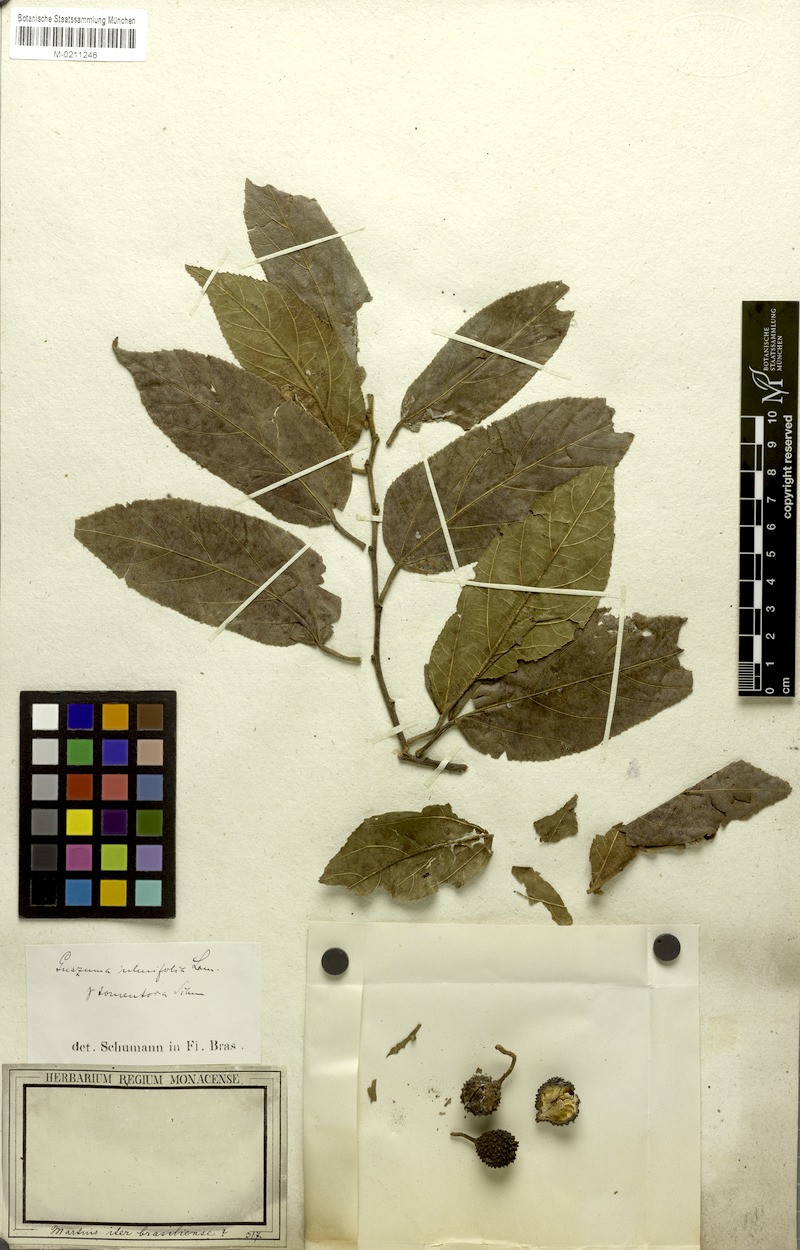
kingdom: Plantae
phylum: Tracheophyta
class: Magnoliopsida
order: Malvales
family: Malvaceae
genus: Guazuma
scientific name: Guazuma ulmifolia
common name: Bastard-cedar
